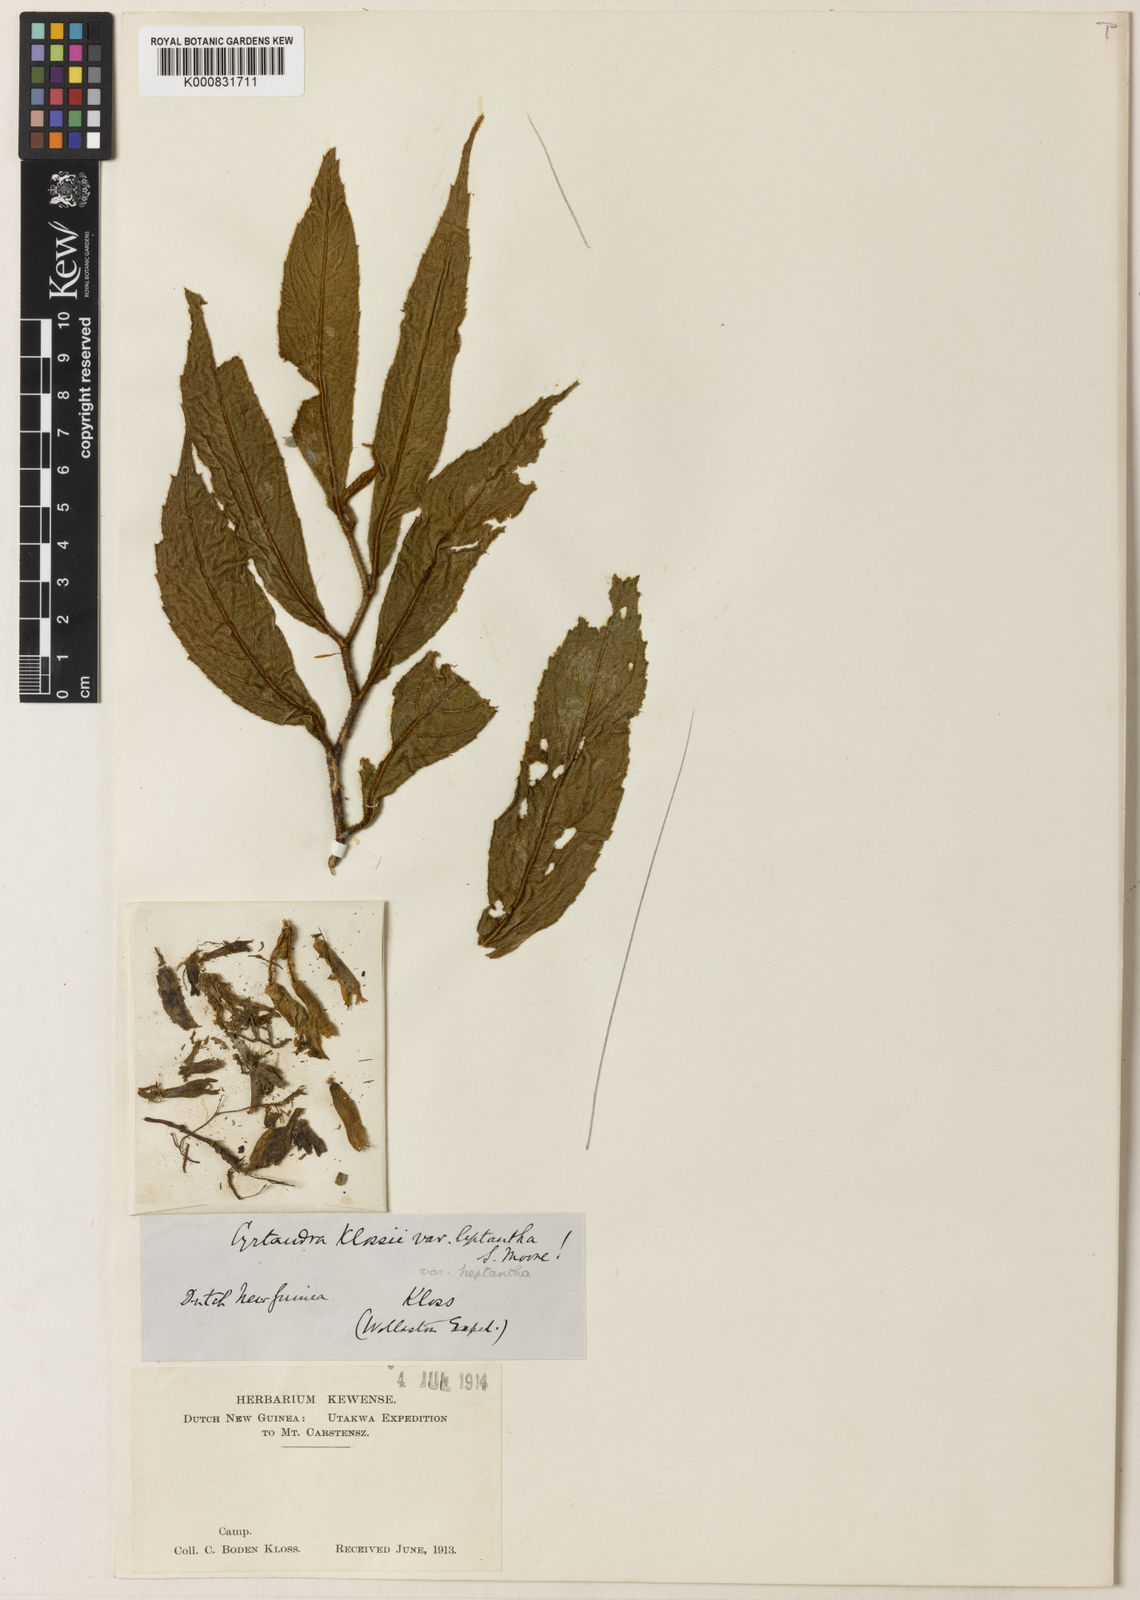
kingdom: Plantae
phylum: Tracheophyta
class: Magnoliopsida
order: Lamiales
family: Gesneriaceae
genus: Cyrtandra
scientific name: Cyrtandra klossii
